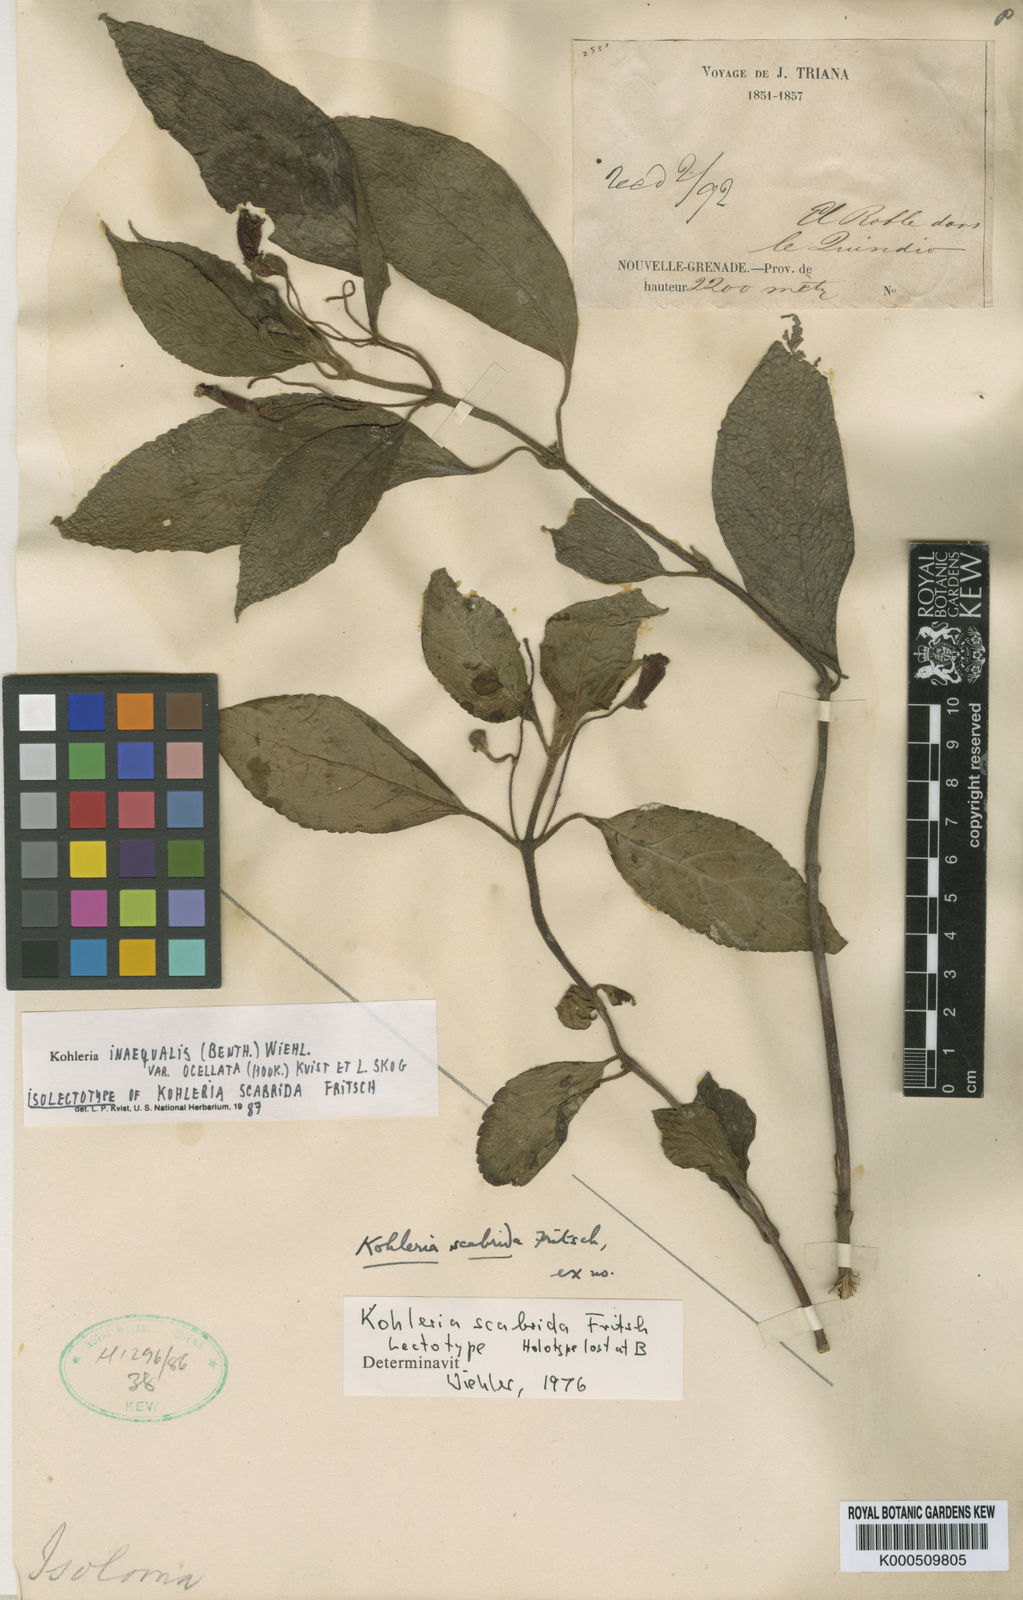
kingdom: Plantae
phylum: Tracheophyta
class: Magnoliopsida
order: Lamiales
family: Gesneriaceae
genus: Kohleria
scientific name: Kohleria inaequalis
